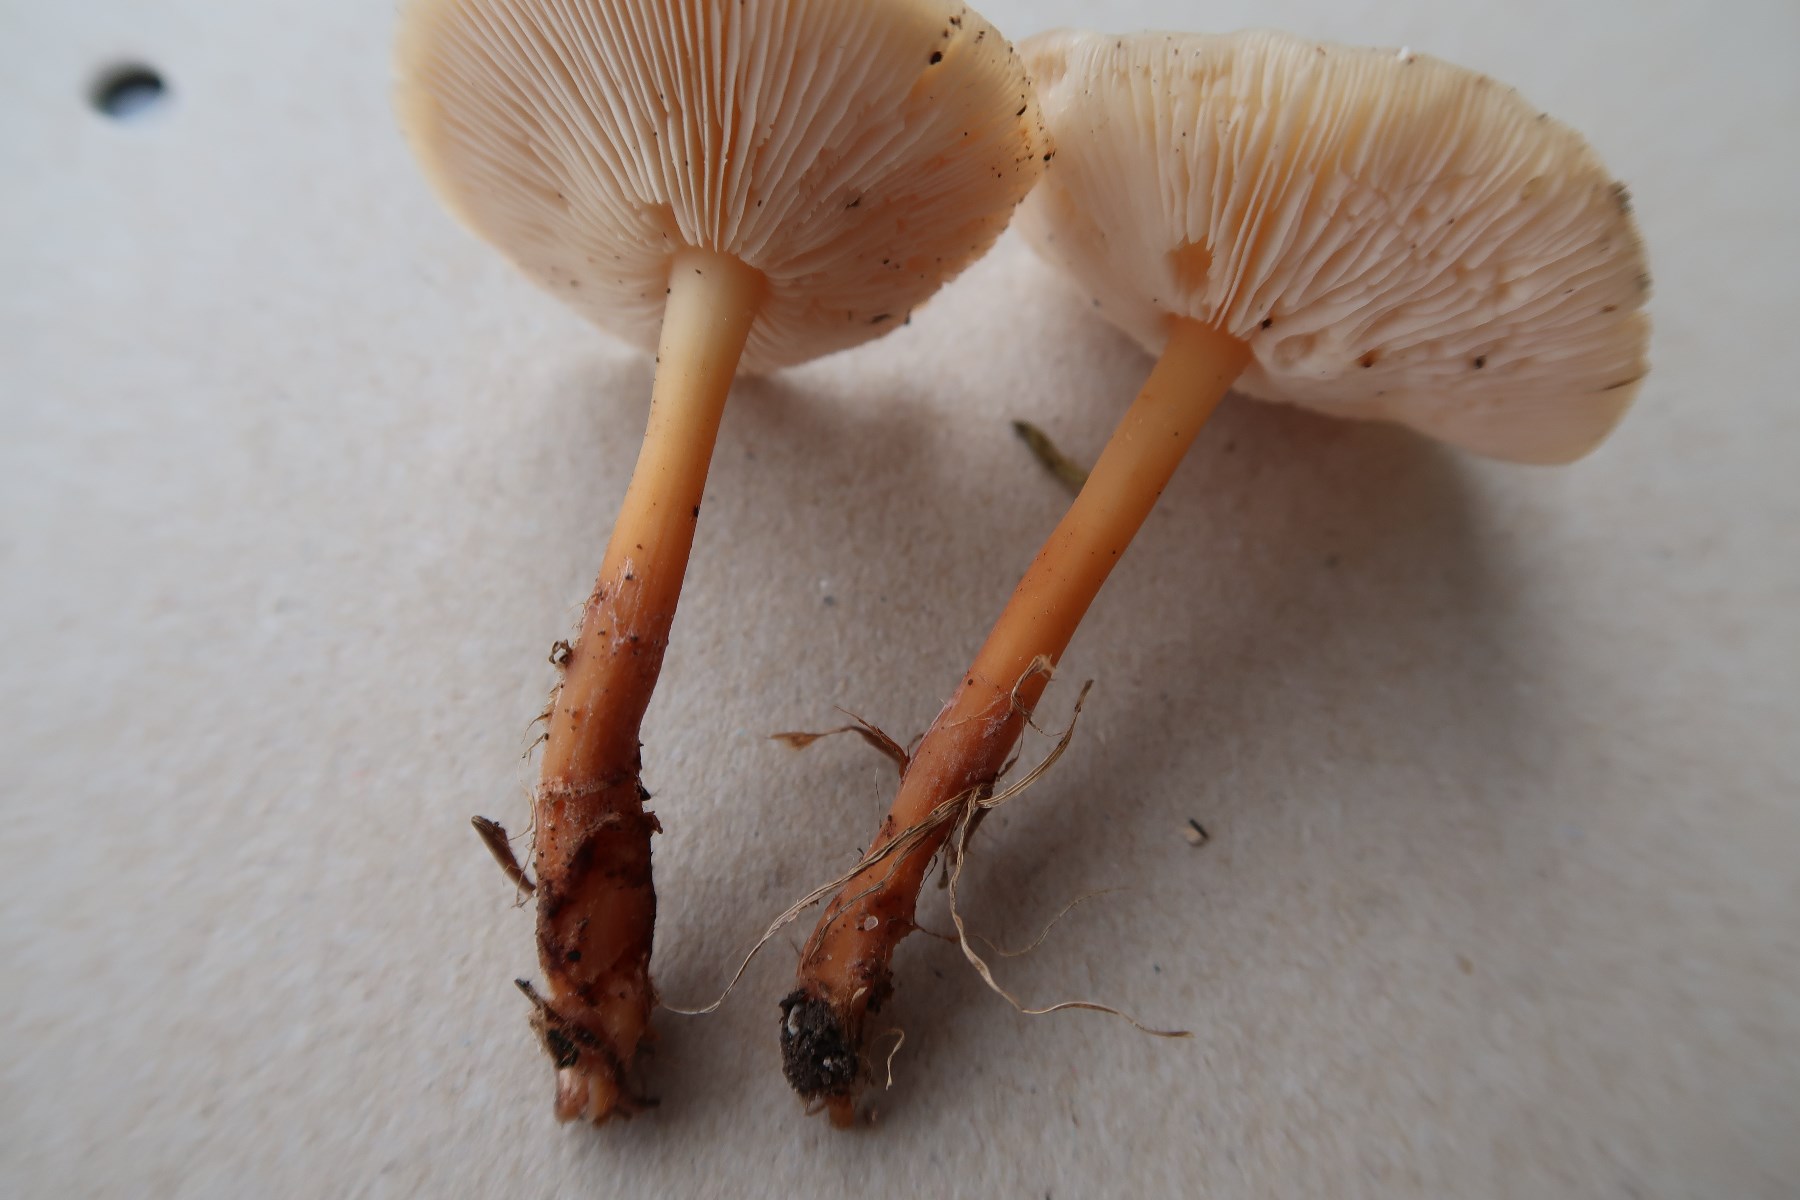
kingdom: Fungi
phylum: Basidiomycota
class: Agaricomycetes
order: Agaricales
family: Omphalotaceae
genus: Gymnopus
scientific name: Gymnopus dryophilus
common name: løv-fladhat
